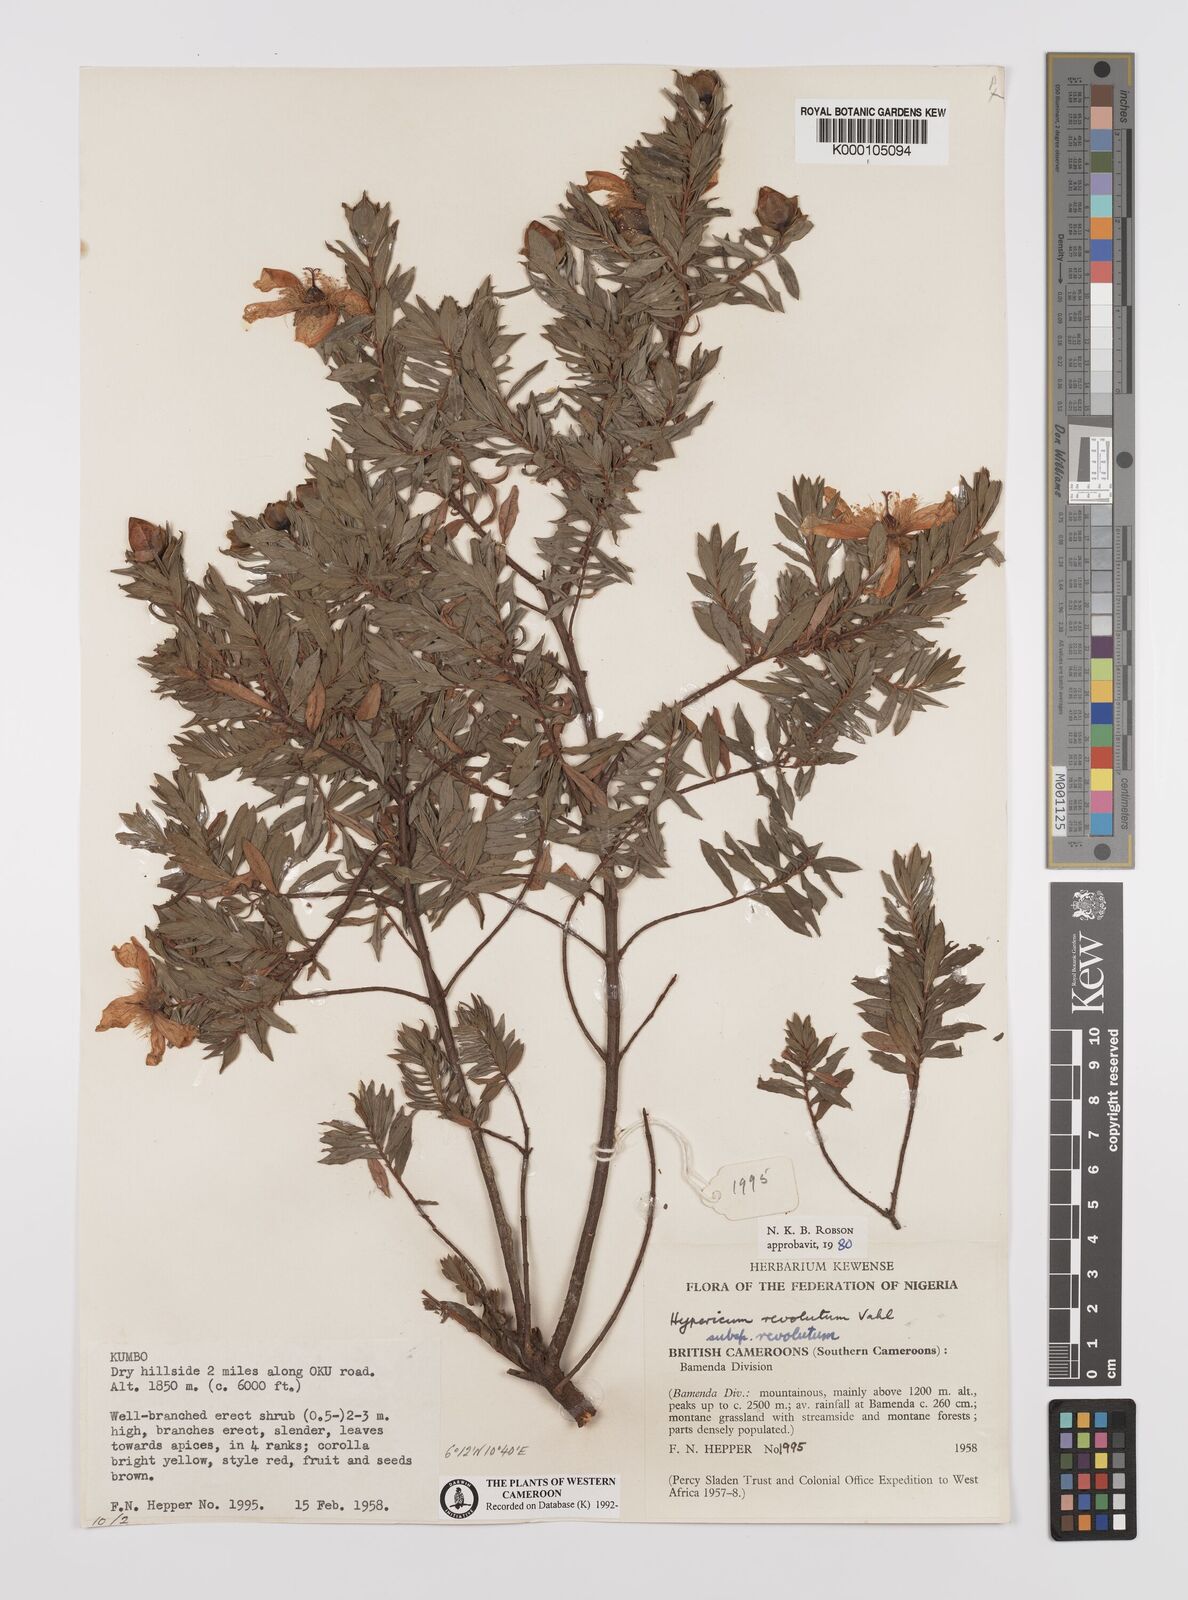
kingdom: Plantae
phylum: Tracheophyta
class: Magnoliopsida
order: Malpighiales
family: Hypericaceae
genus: Hypericum
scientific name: Hypericum revolutum
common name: Curry bush
